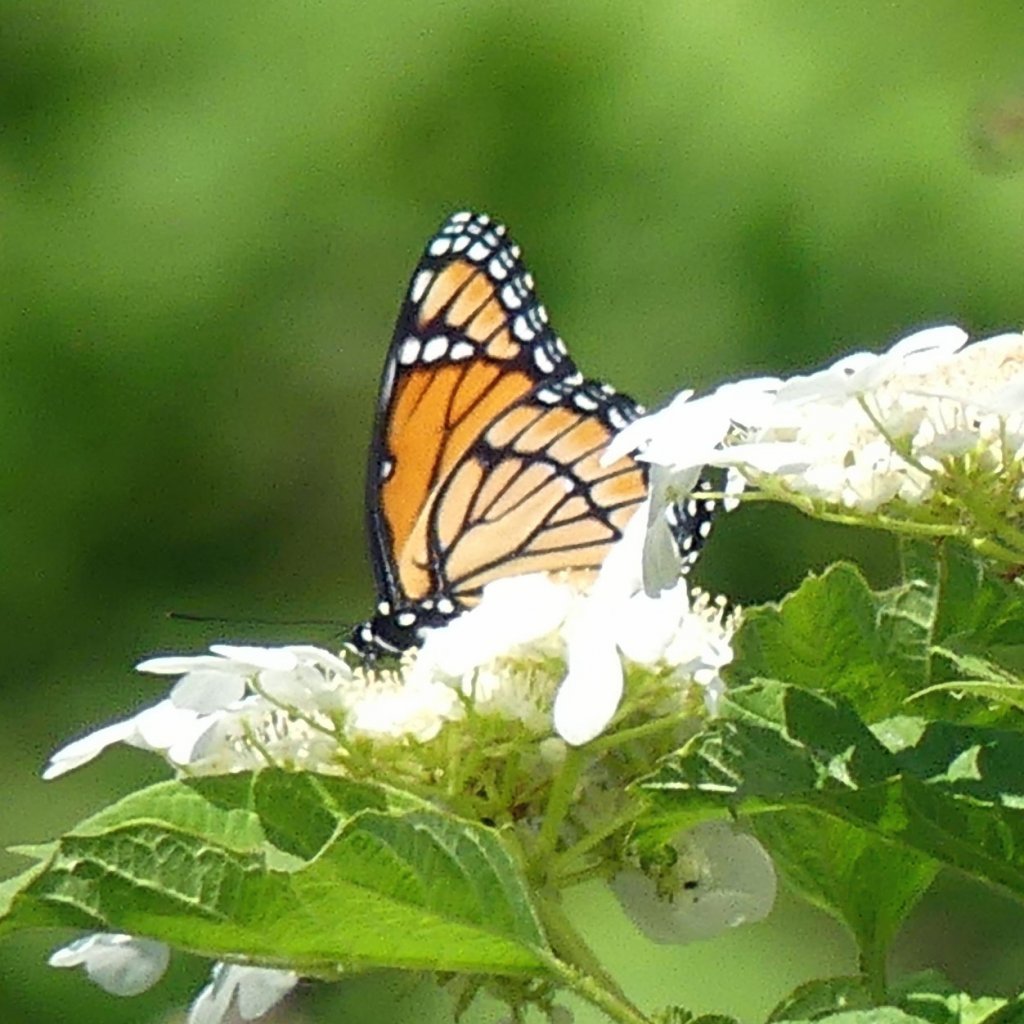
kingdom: Animalia
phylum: Arthropoda
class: Insecta
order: Lepidoptera
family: Nymphalidae
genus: Limenitis
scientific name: Limenitis archippus
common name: Viceroy
